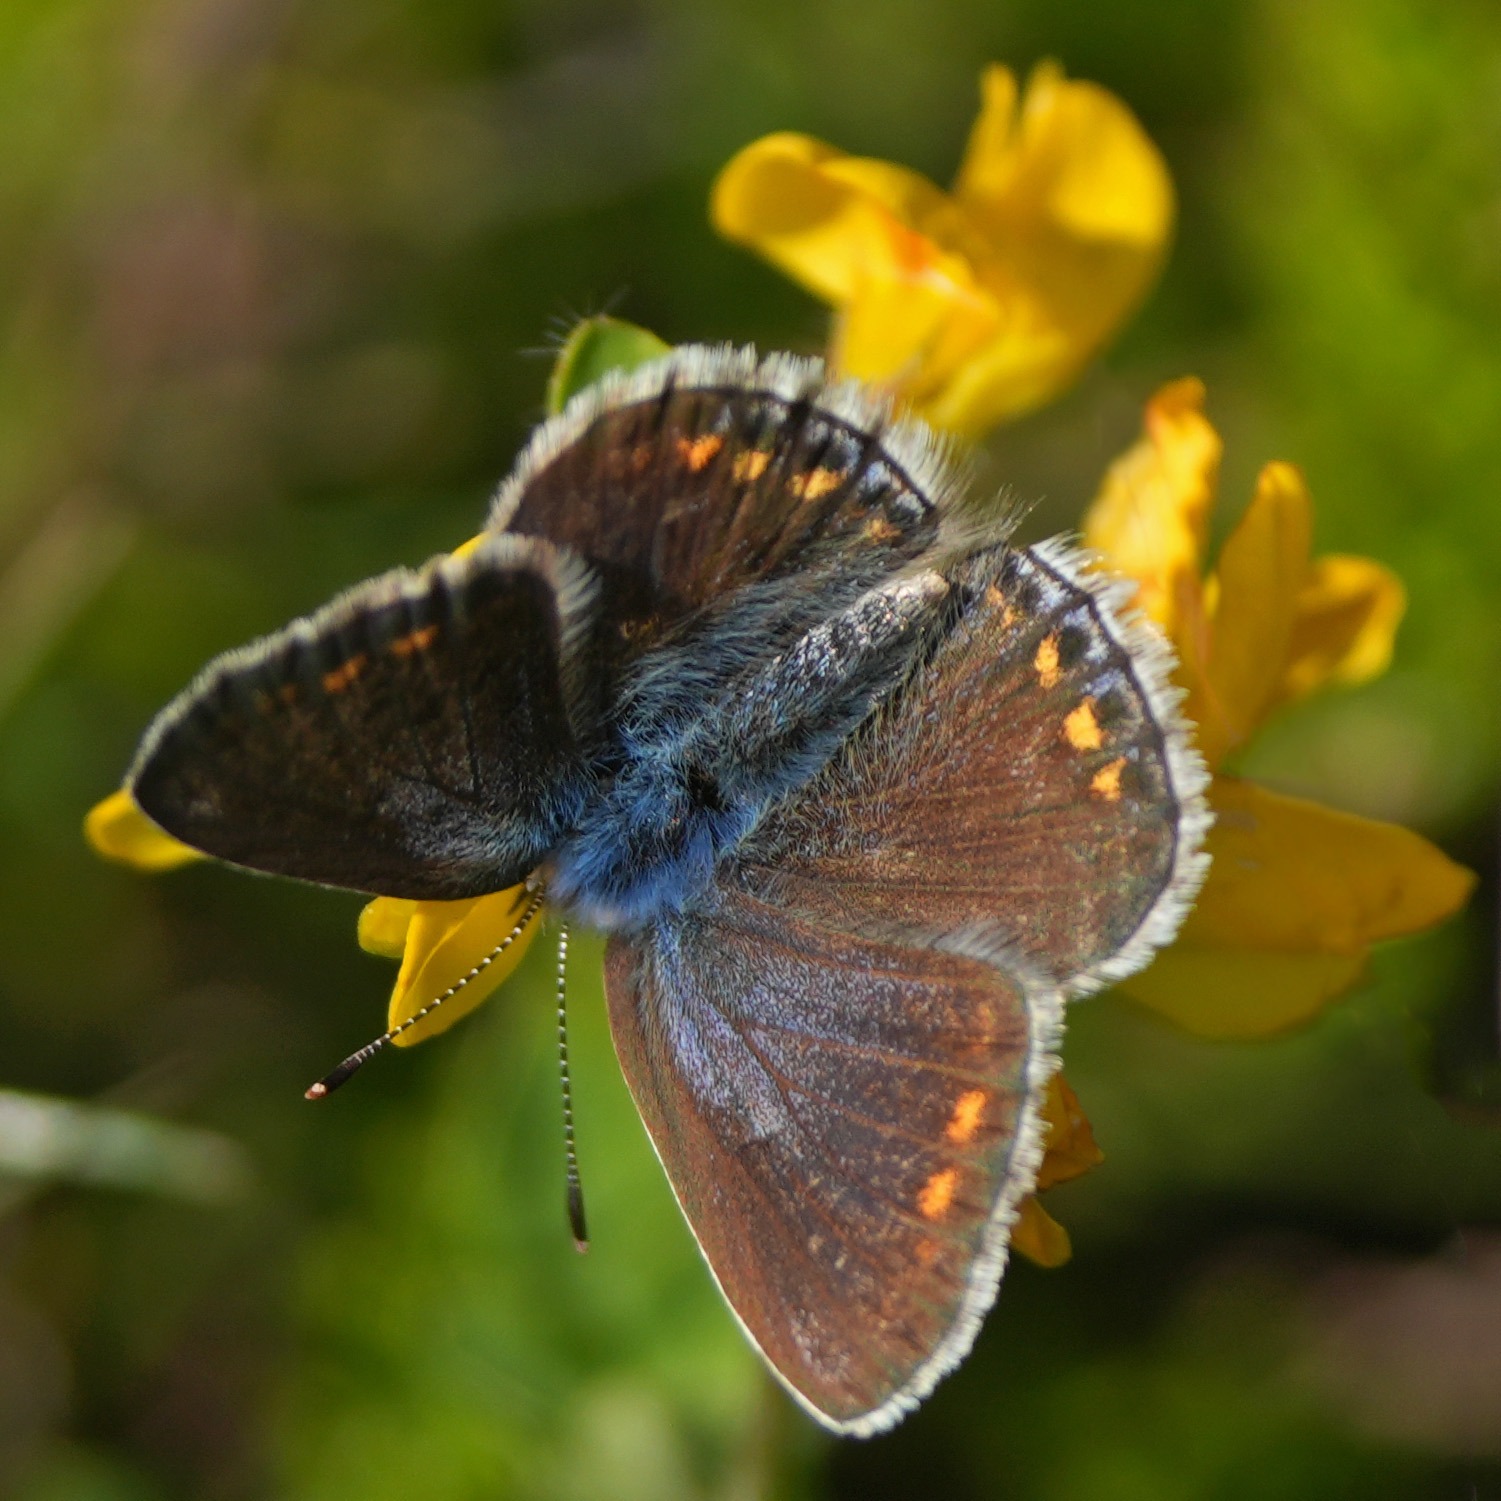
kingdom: Animalia
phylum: Arthropoda
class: Insecta
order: Lepidoptera
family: Lycaenidae
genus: Polyommatus
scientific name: Polyommatus icarus
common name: Almindelig blåfugl
